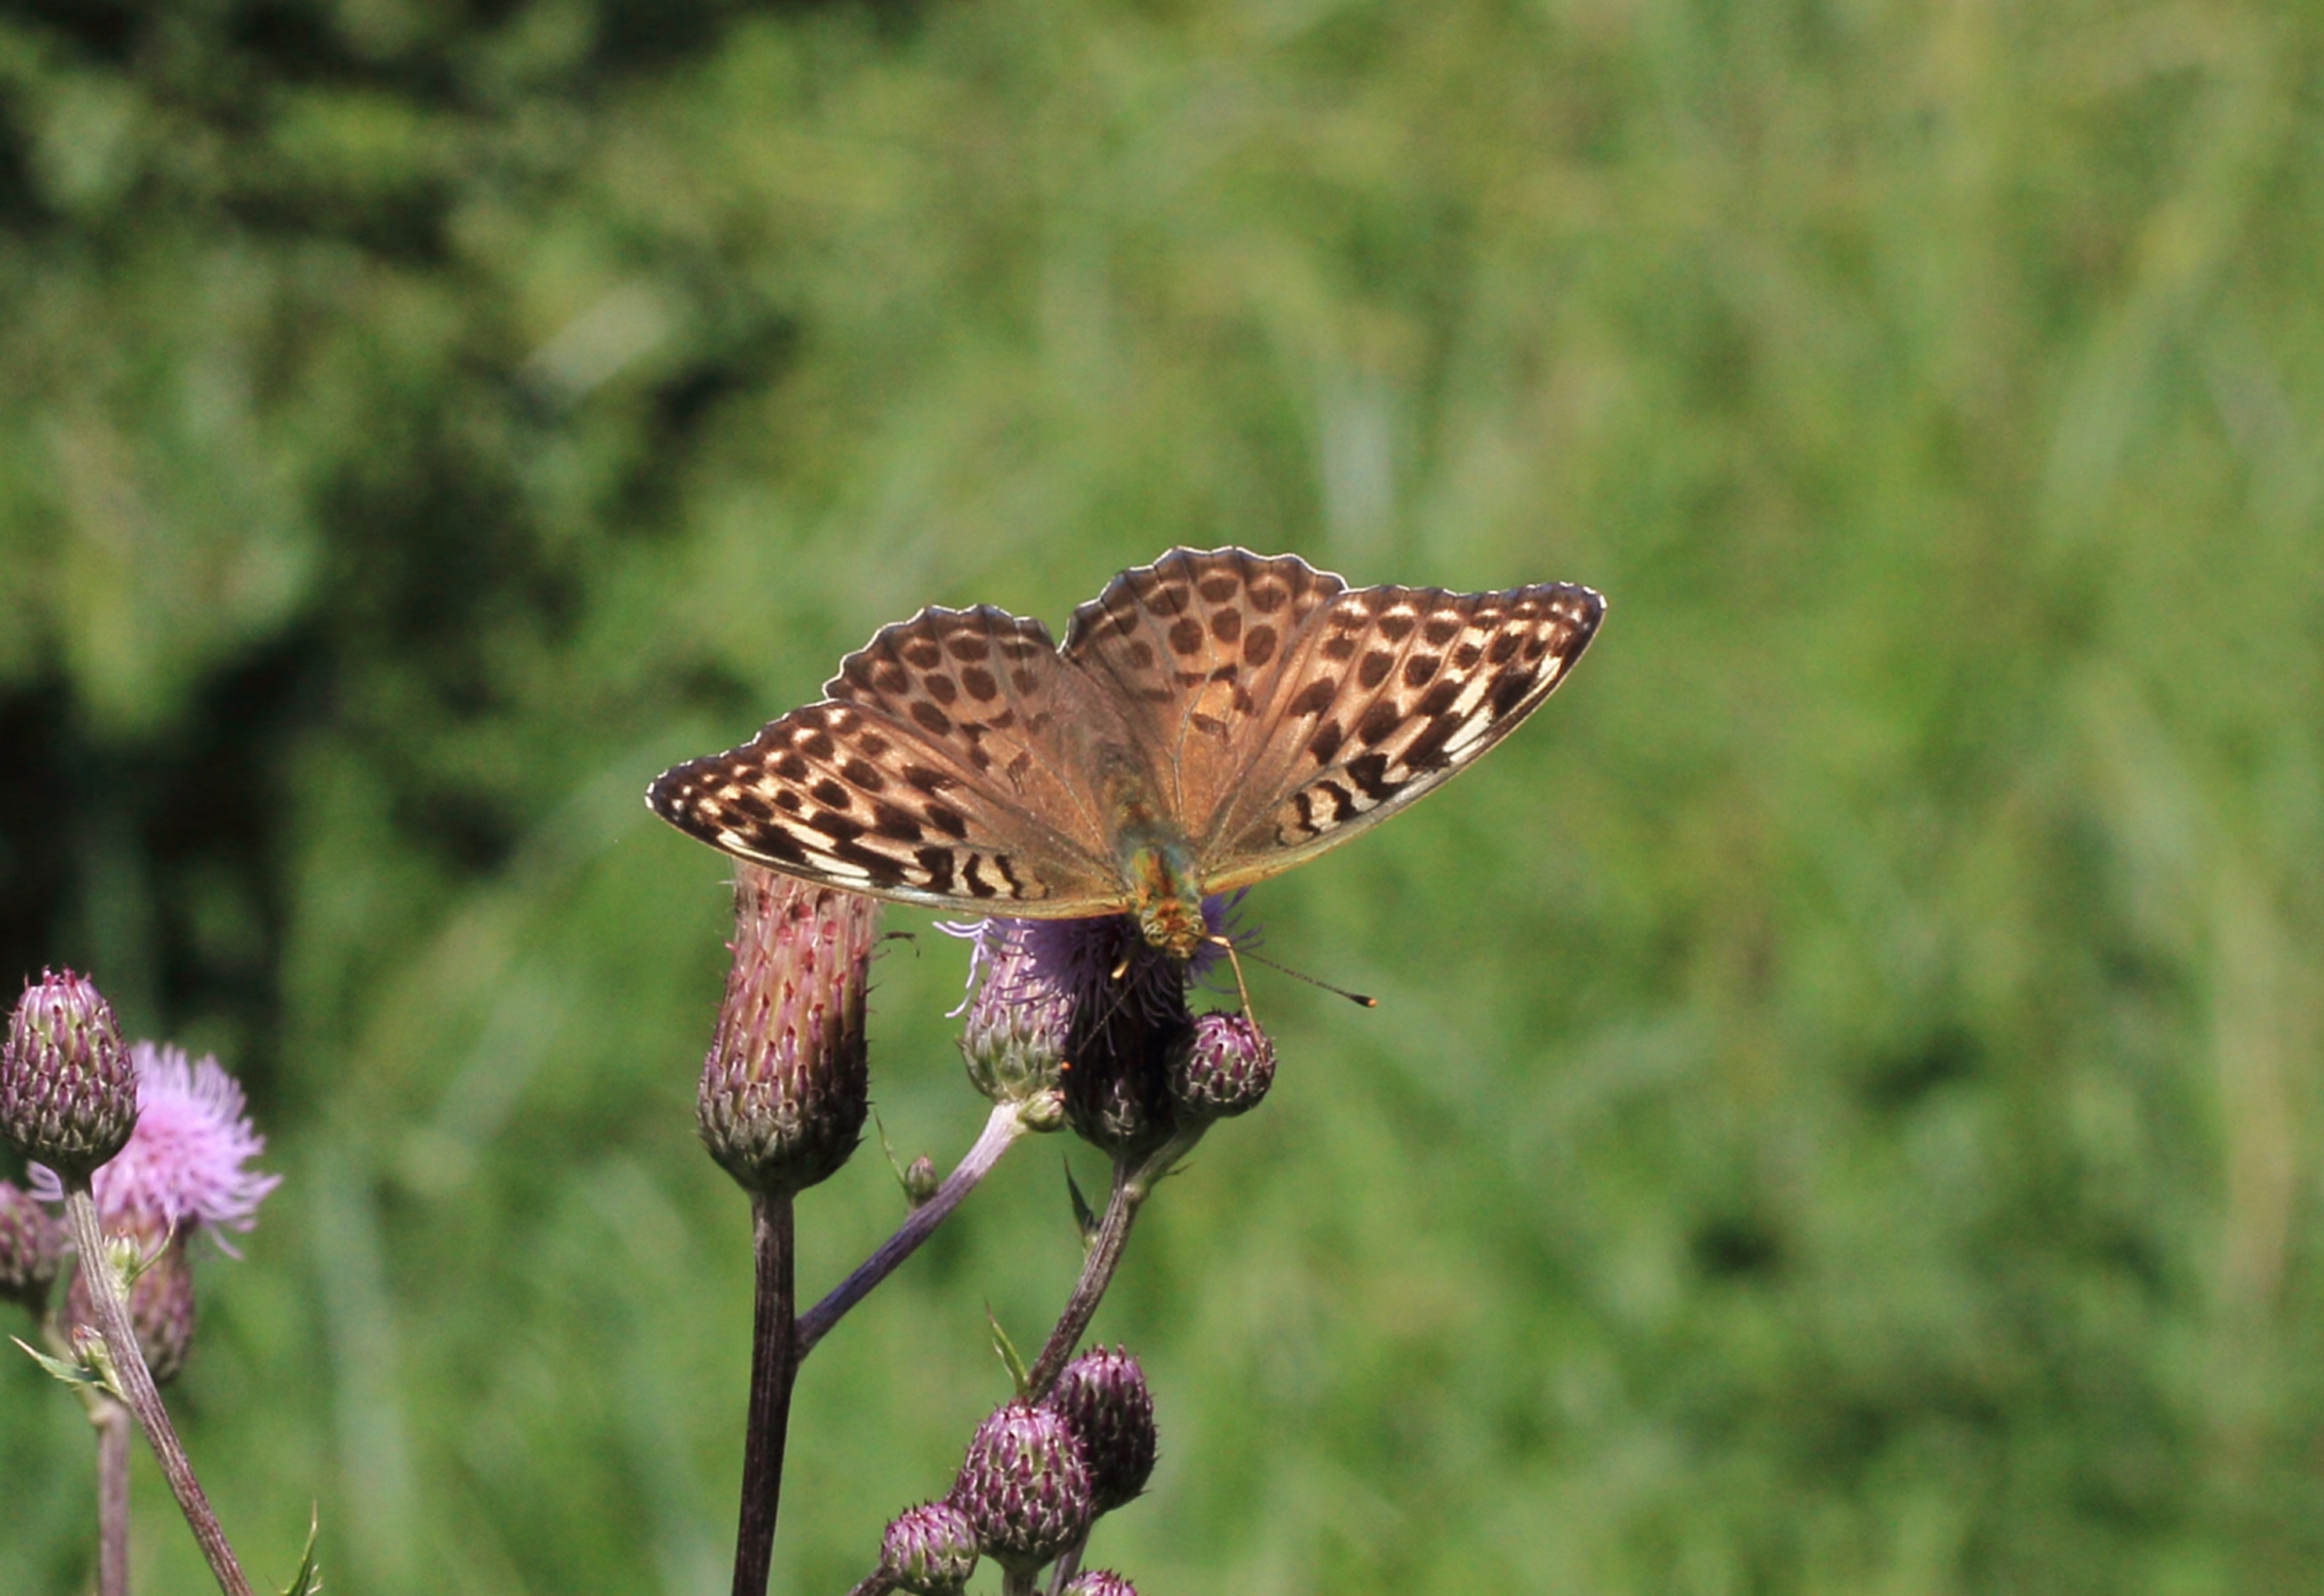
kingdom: Animalia
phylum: Arthropoda
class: Insecta
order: Lepidoptera
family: Nymphalidae
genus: Argynnis
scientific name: Argynnis paphia
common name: Kejserkåbe
